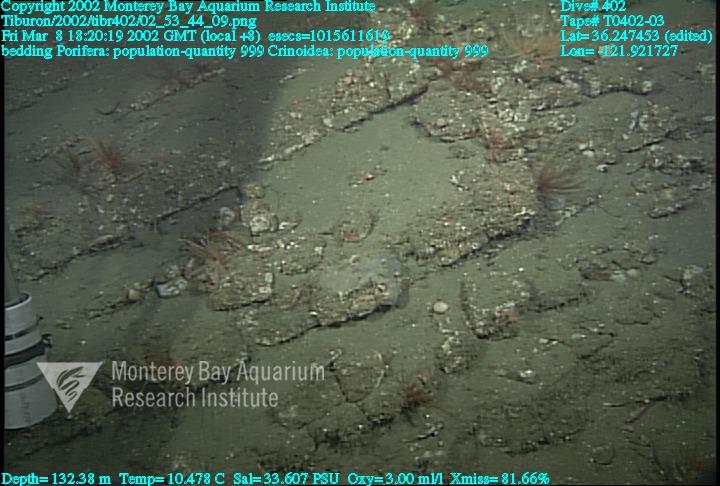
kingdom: Animalia
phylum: Porifera
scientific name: Porifera
